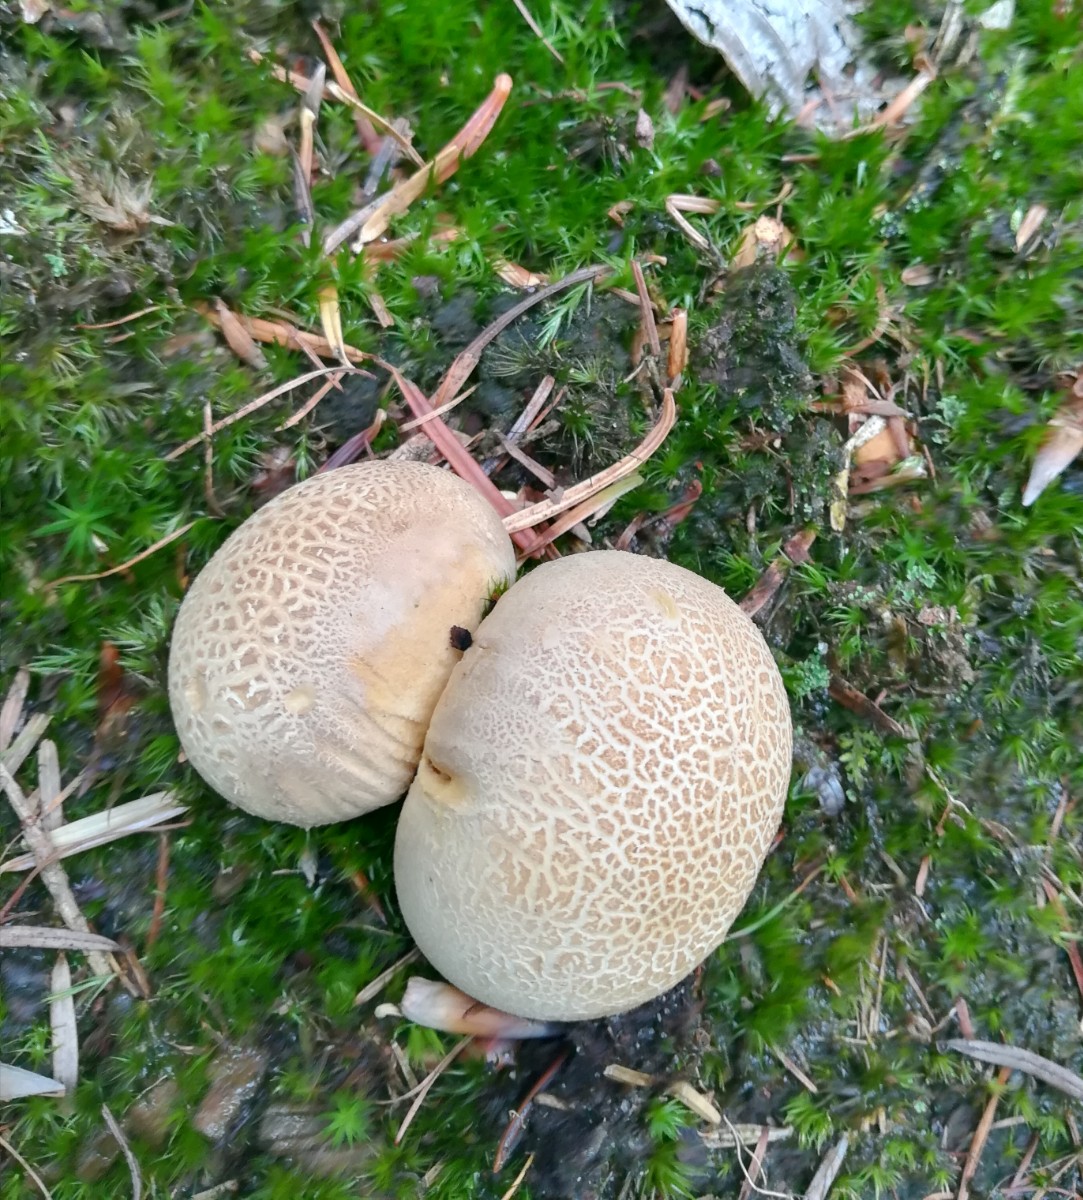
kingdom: Fungi
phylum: Basidiomycota
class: Agaricomycetes
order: Boletales
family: Sclerodermataceae
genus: Scleroderma
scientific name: Scleroderma citrinum
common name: almindelig bruskbold
